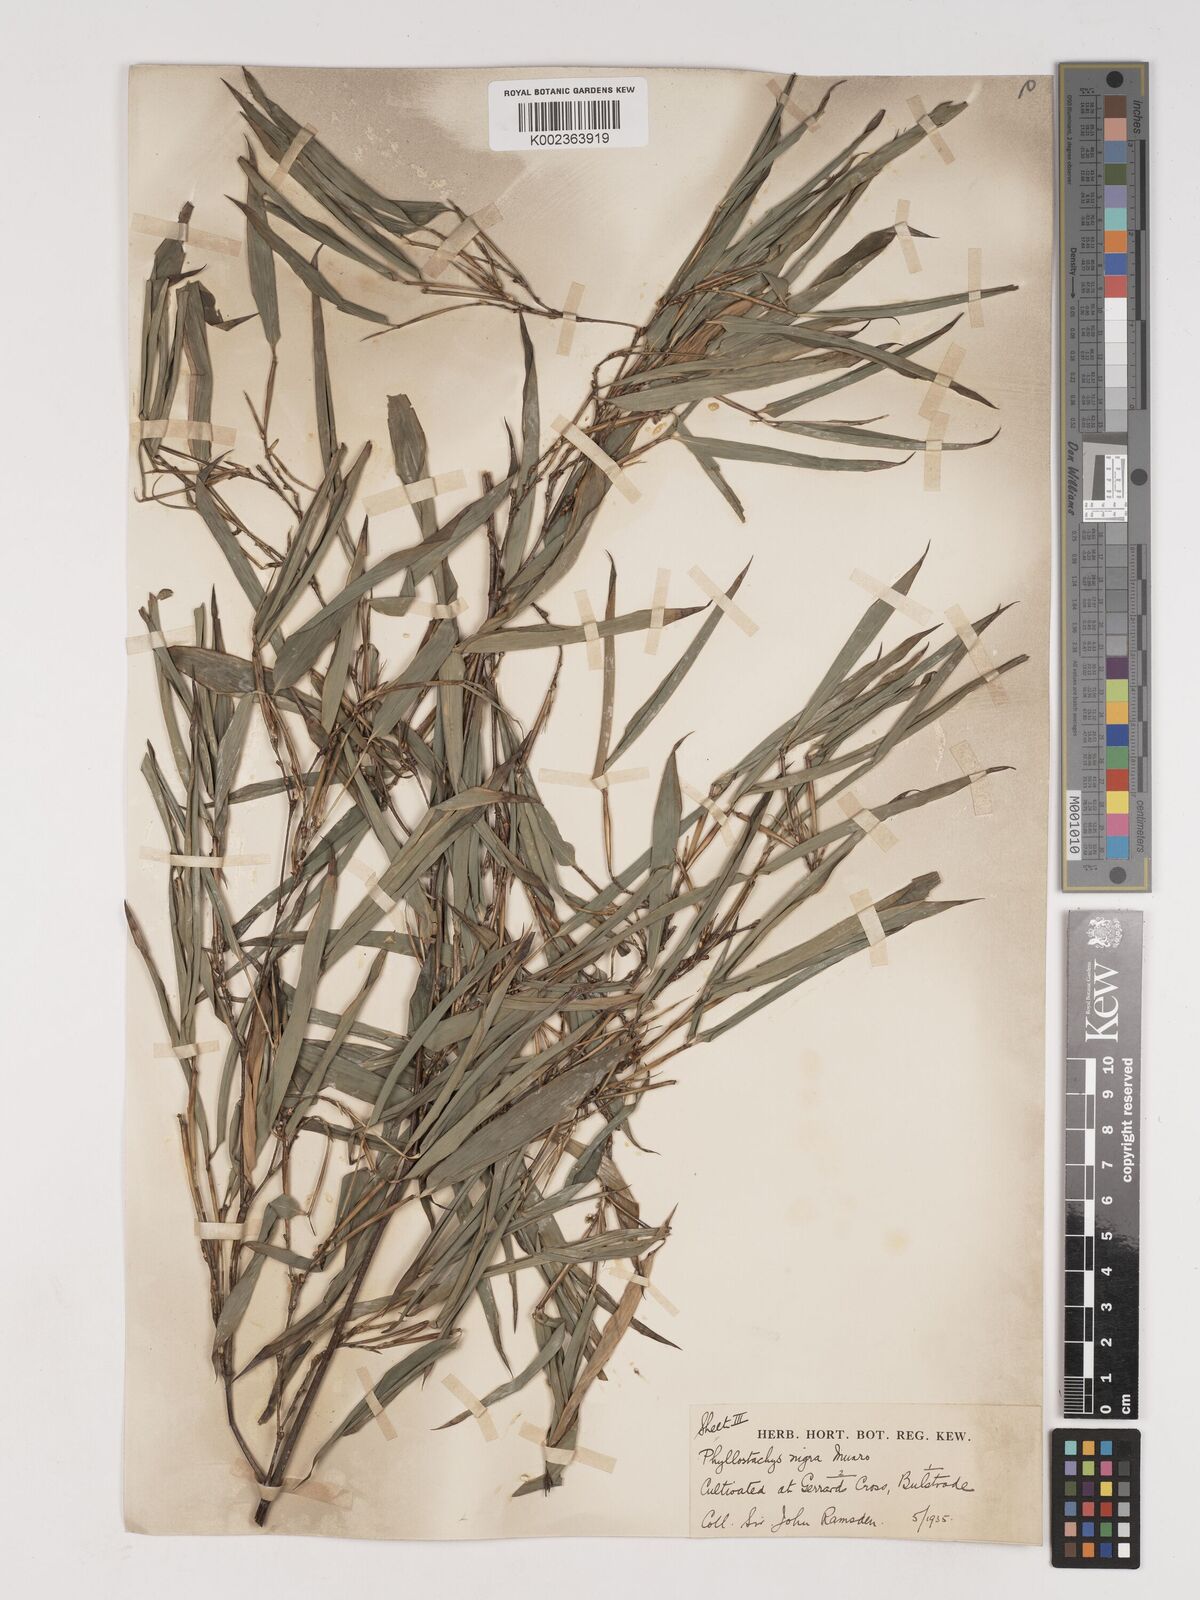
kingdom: Plantae
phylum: Tracheophyta
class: Liliopsida
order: Poales
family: Poaceae
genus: Phyllostachys
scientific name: Phyllostachys nigra
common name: Black bamboo
